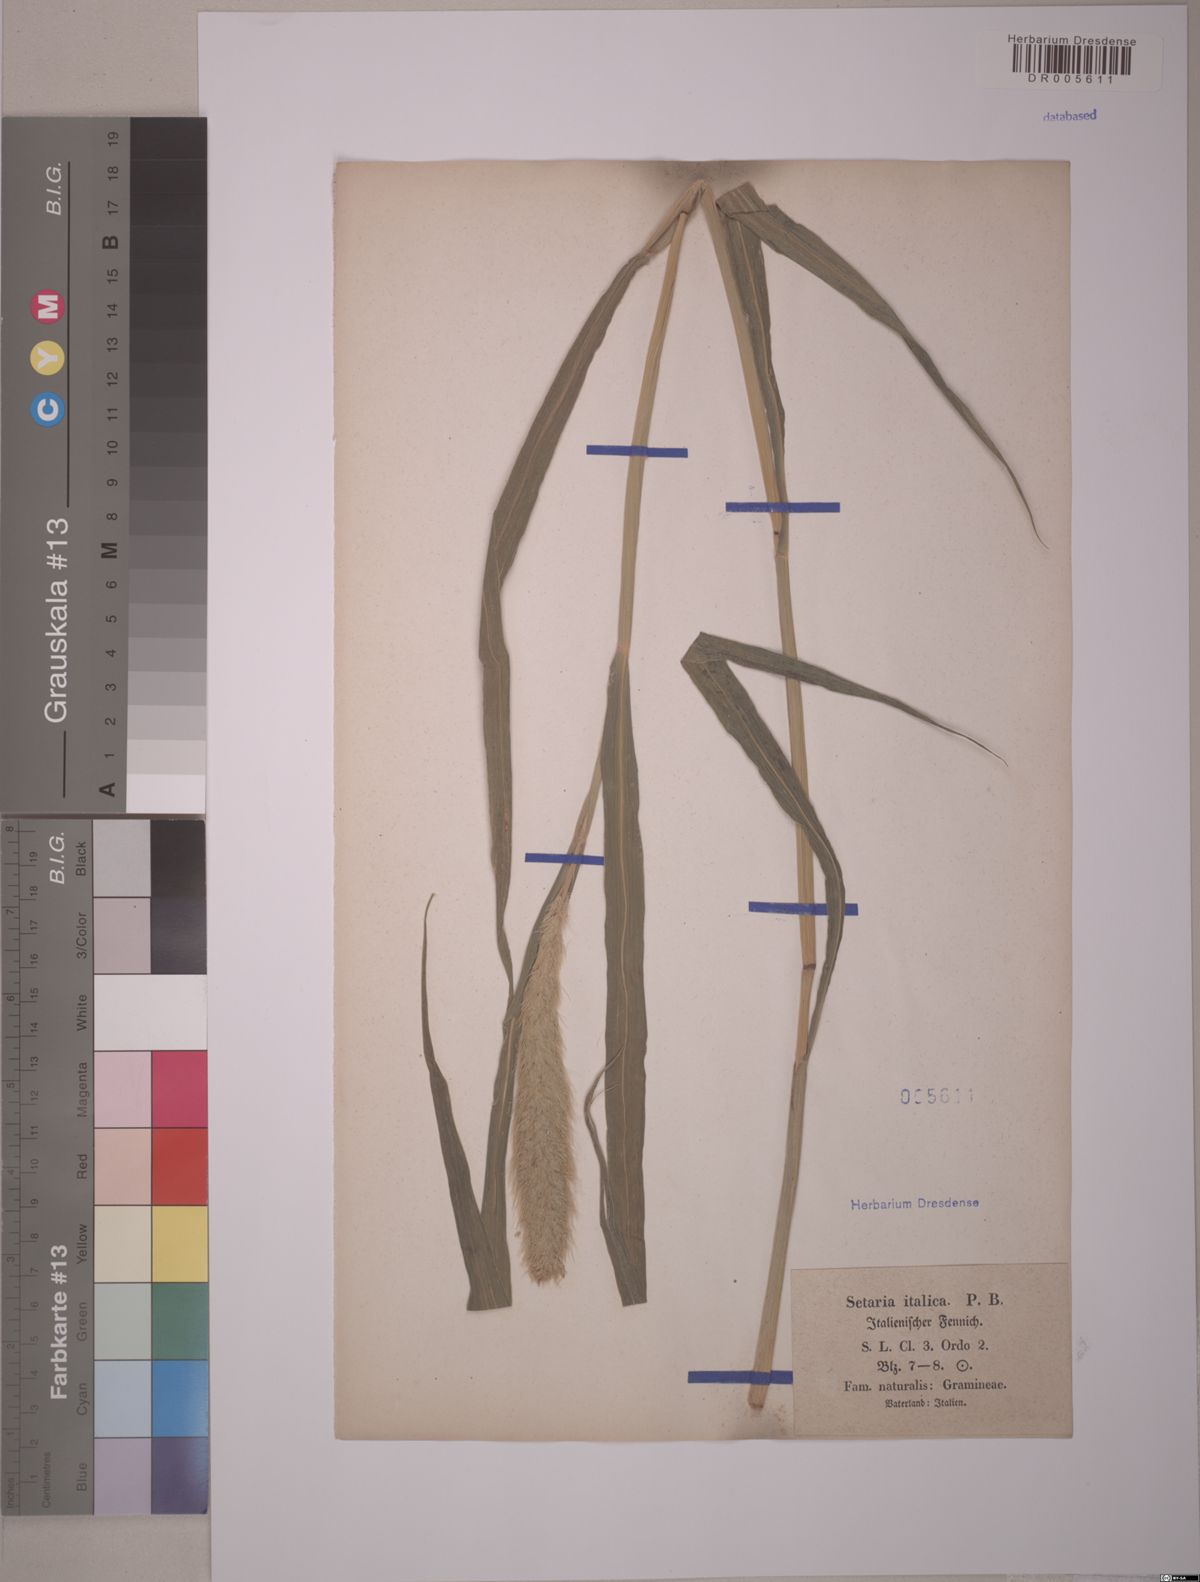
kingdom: Plantae
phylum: Tracheophyta
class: Liliopsida
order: Poales
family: Poaceae
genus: Setaria
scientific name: Setaria italica
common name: Foxtail bristle-grass
